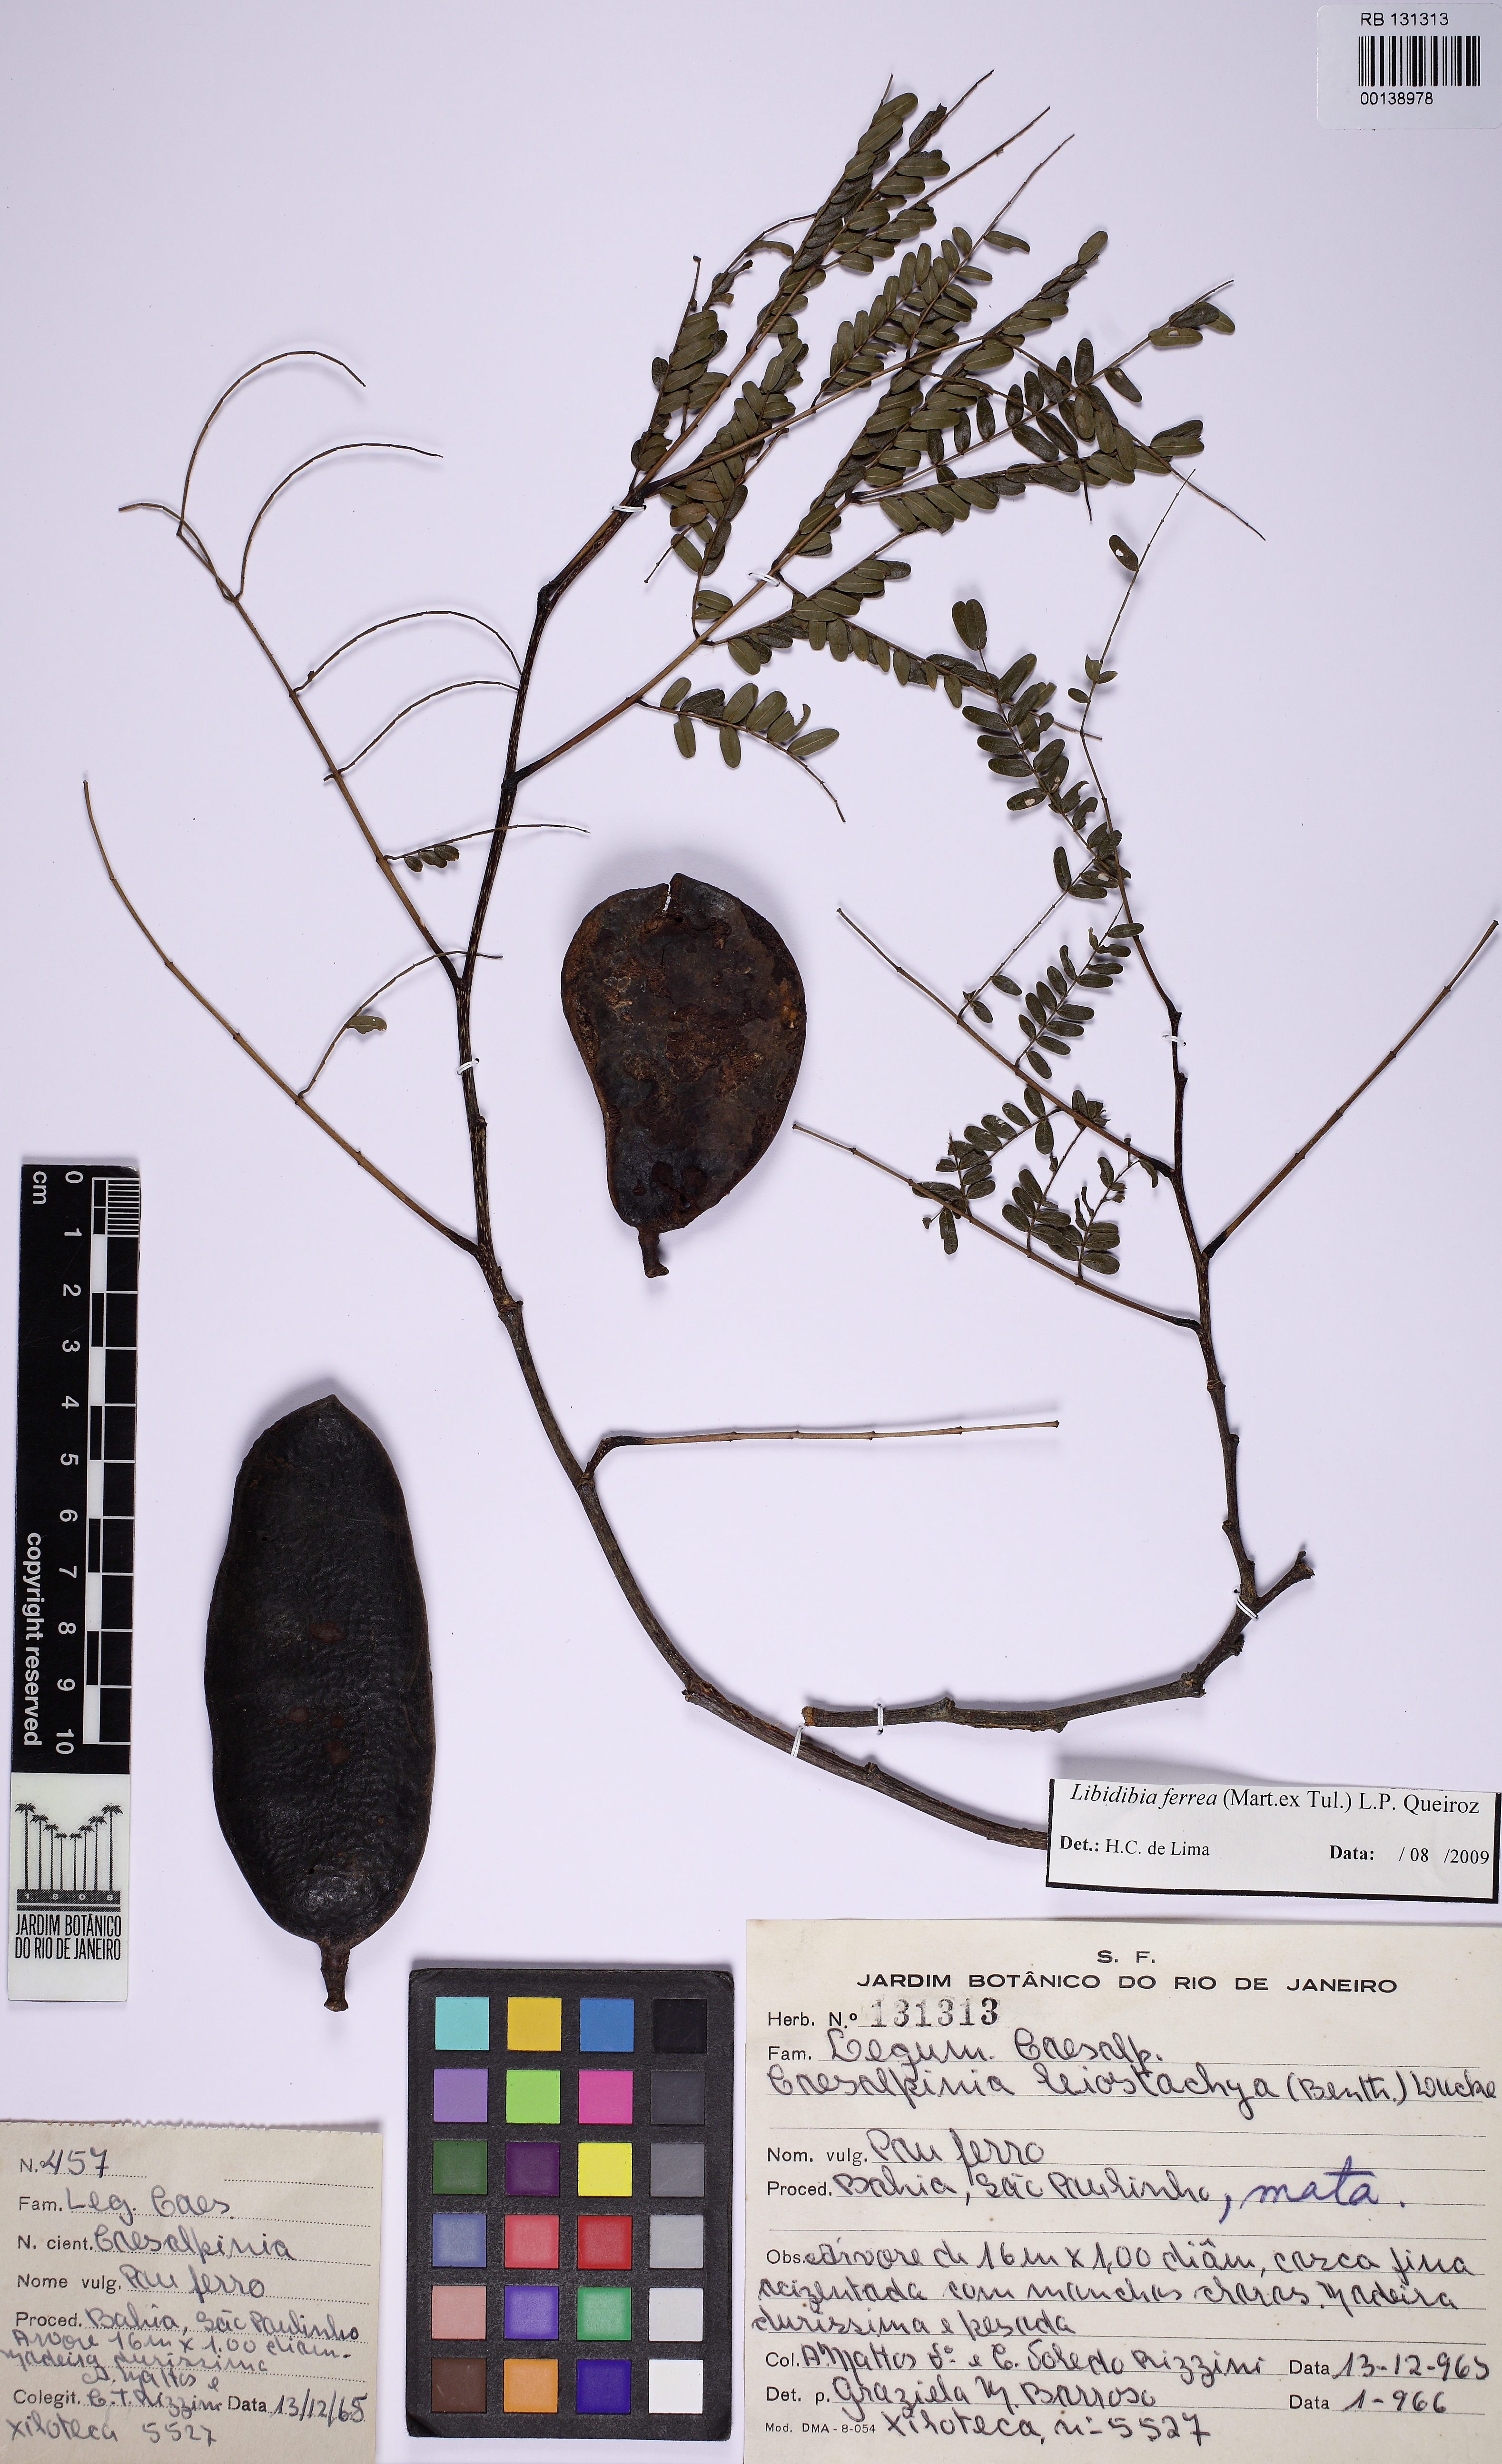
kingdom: Plantae
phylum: Tracheophyta
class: Magnoliopsida
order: Fabales
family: Fabaceae
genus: Libidibia
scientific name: Libidibia ferrea
